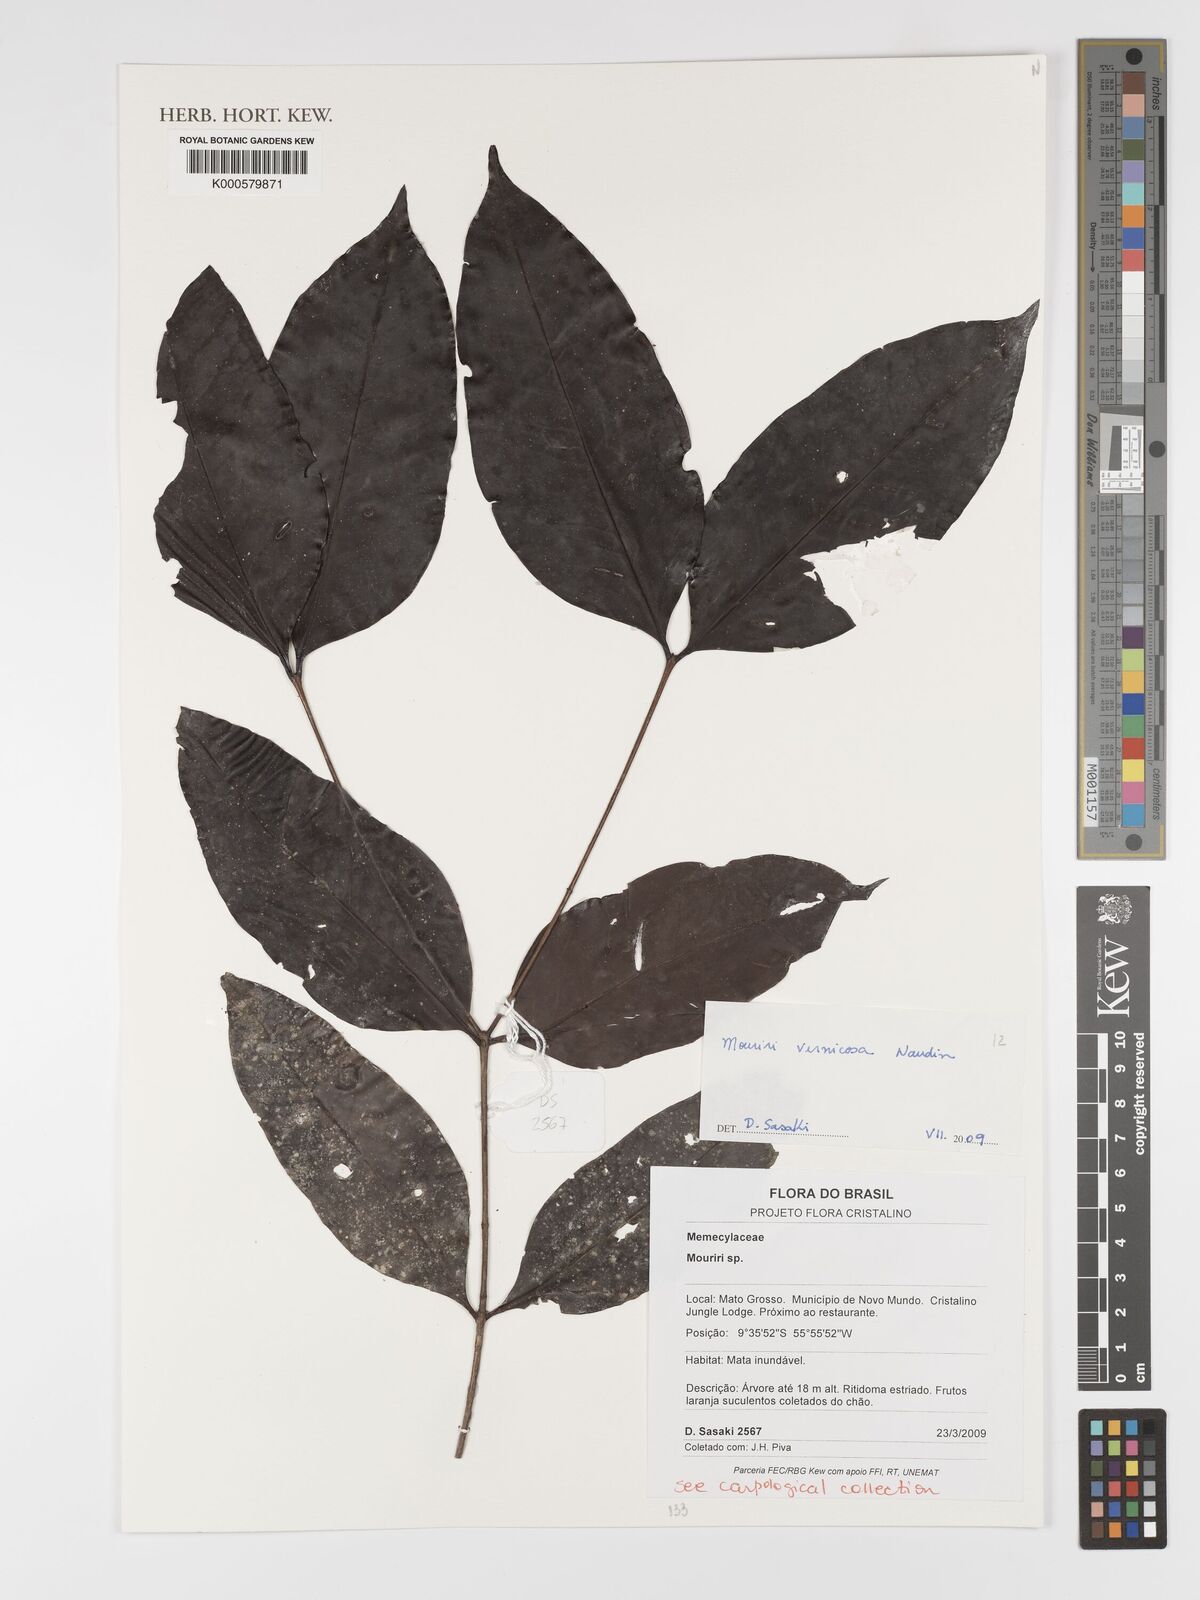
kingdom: Plantae
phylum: Tracheophyta
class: Magnoliopsida
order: Myrtales
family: Melastomataceae
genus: Mouriri
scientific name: Mouriri vernicosa
